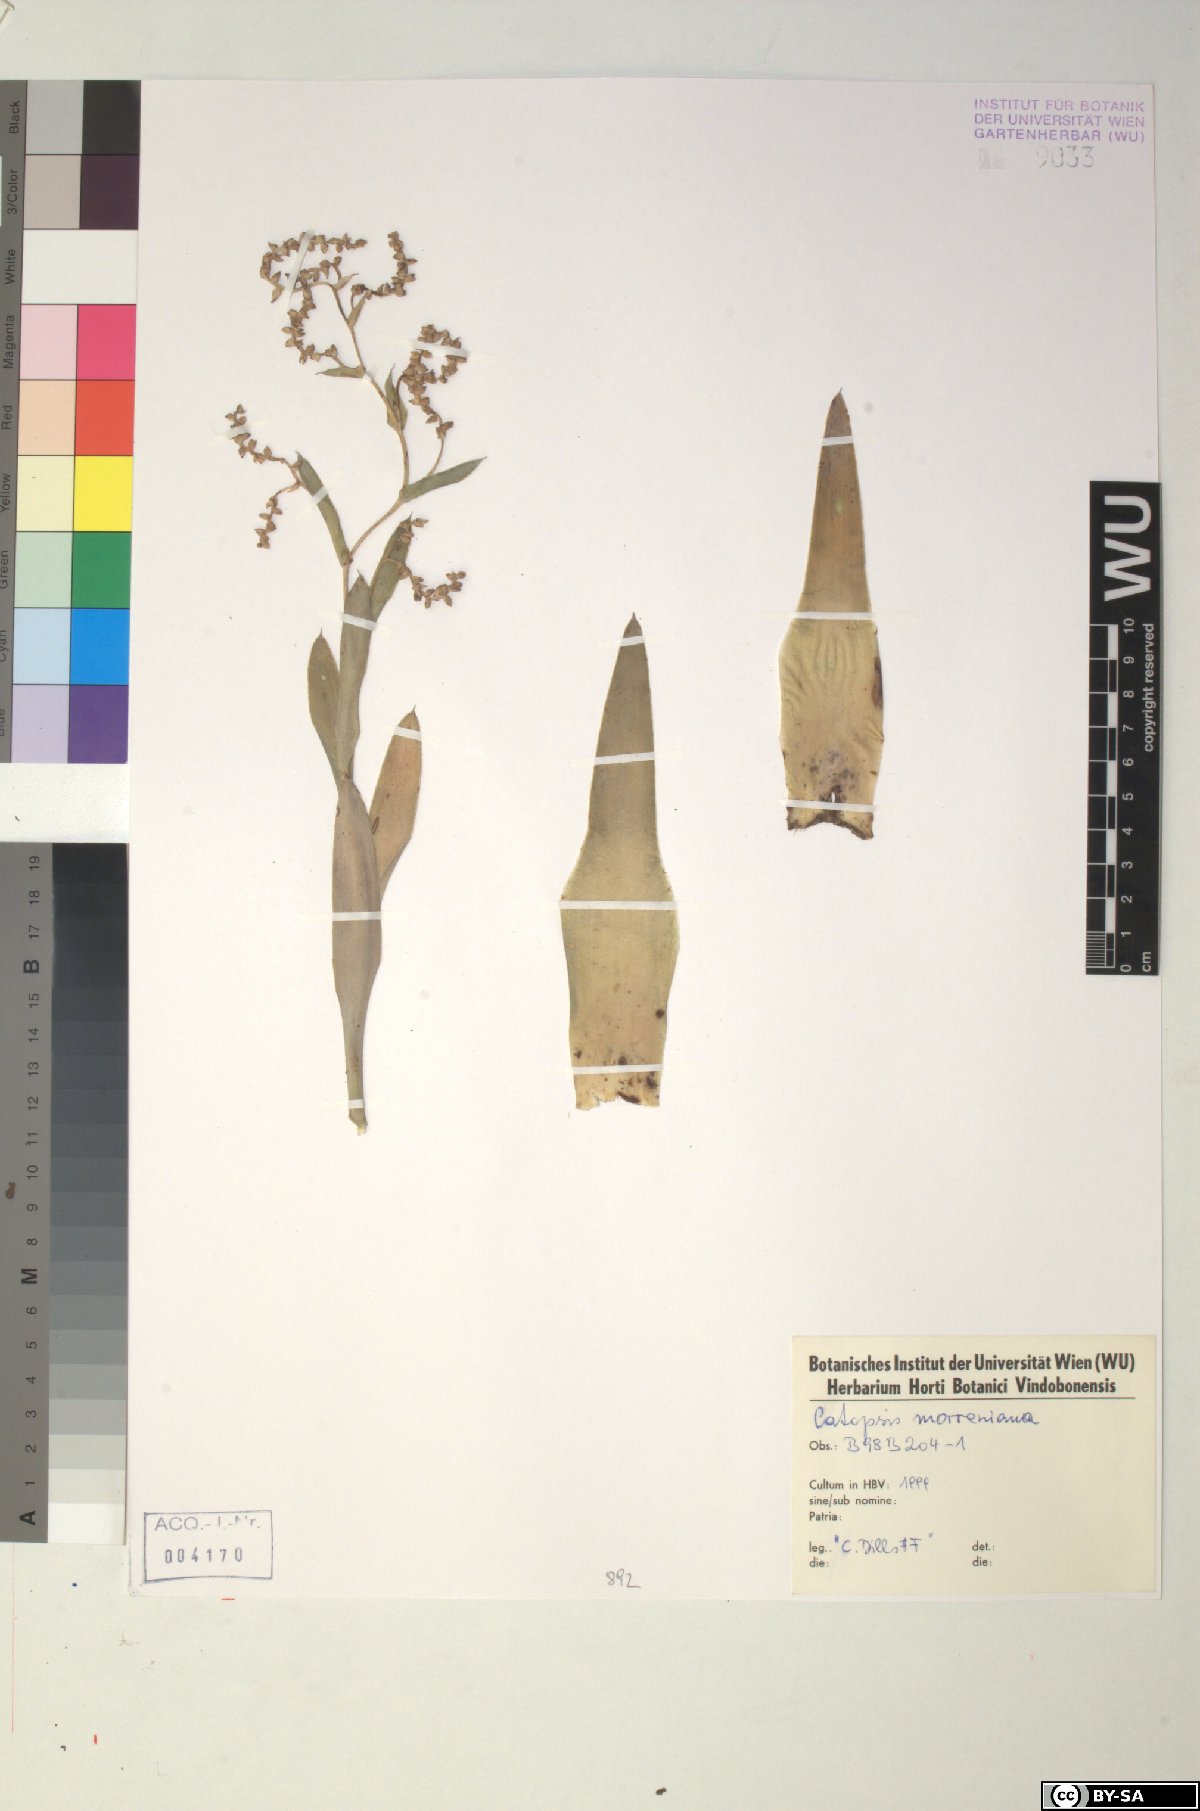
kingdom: Plantae
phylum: Tracheophyta
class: Liliopsida
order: Poales
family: Bromeliaceae
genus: Catopsis
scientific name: Catopsis morreniana
